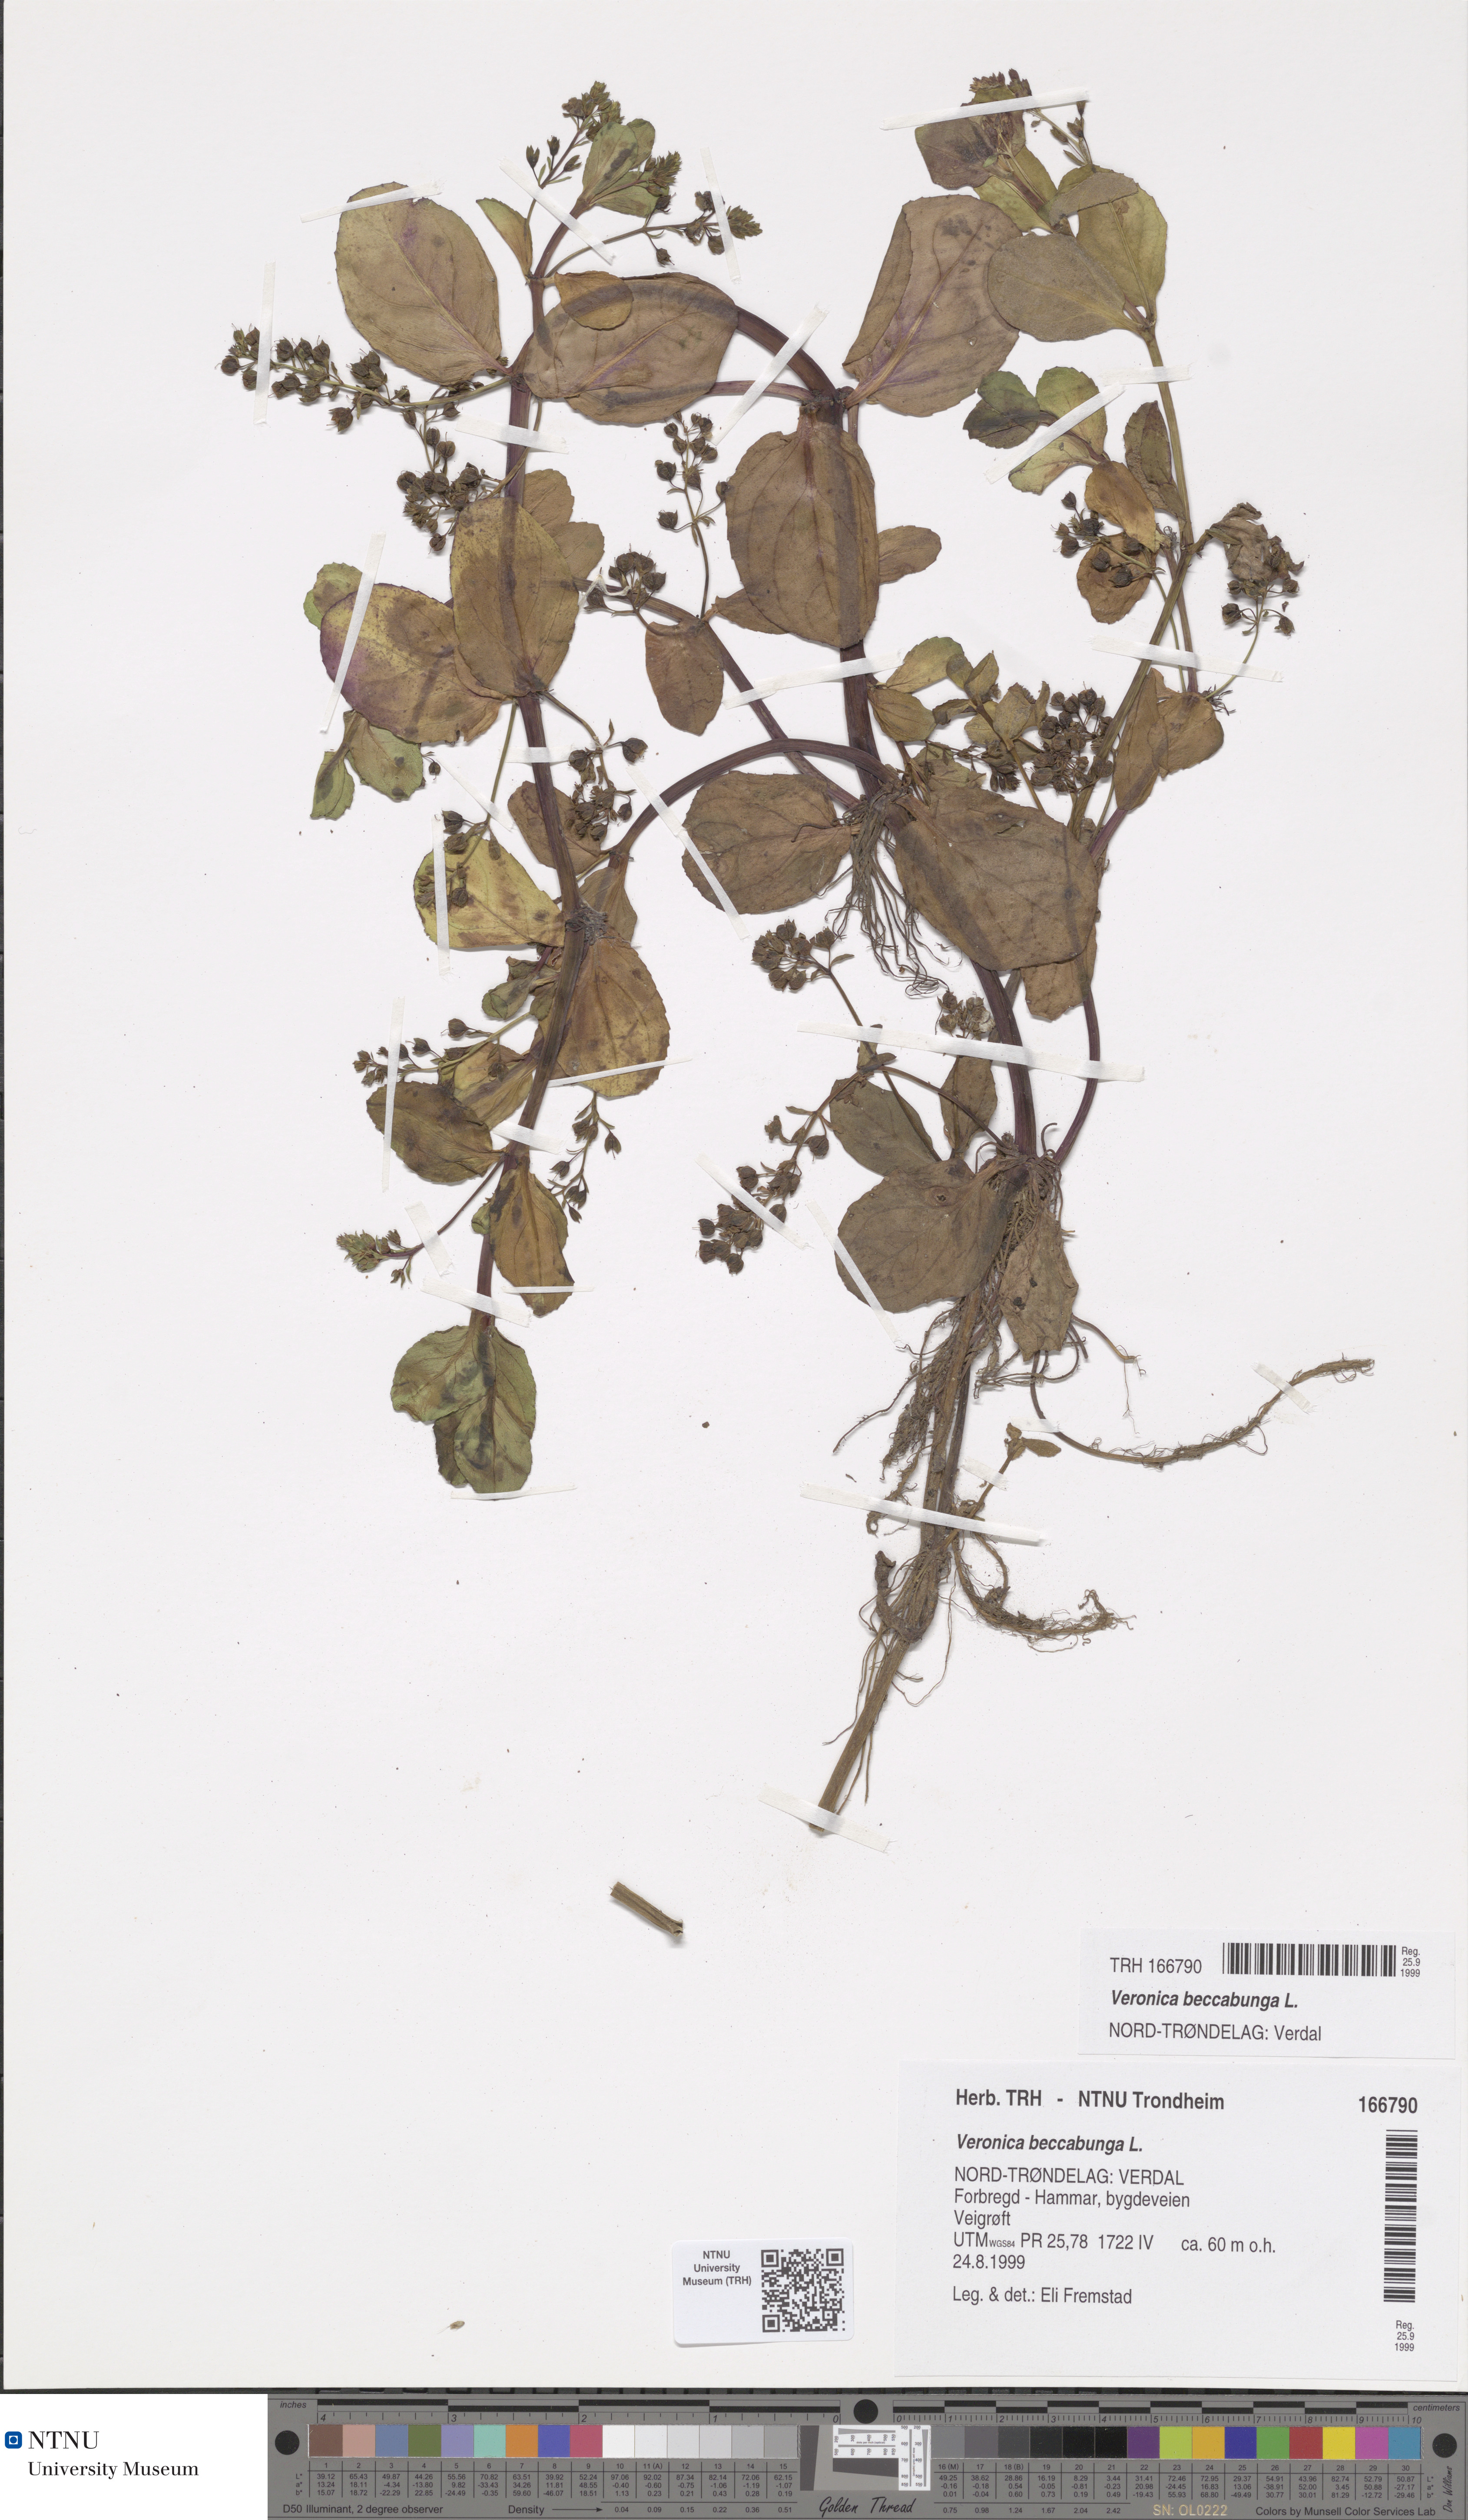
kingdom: Plantae
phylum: Tracheophyta
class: Magnoliopsida
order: Lamiales
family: Plantaginaceae
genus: Veronica
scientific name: Veronica beccabunga
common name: Brooklime
